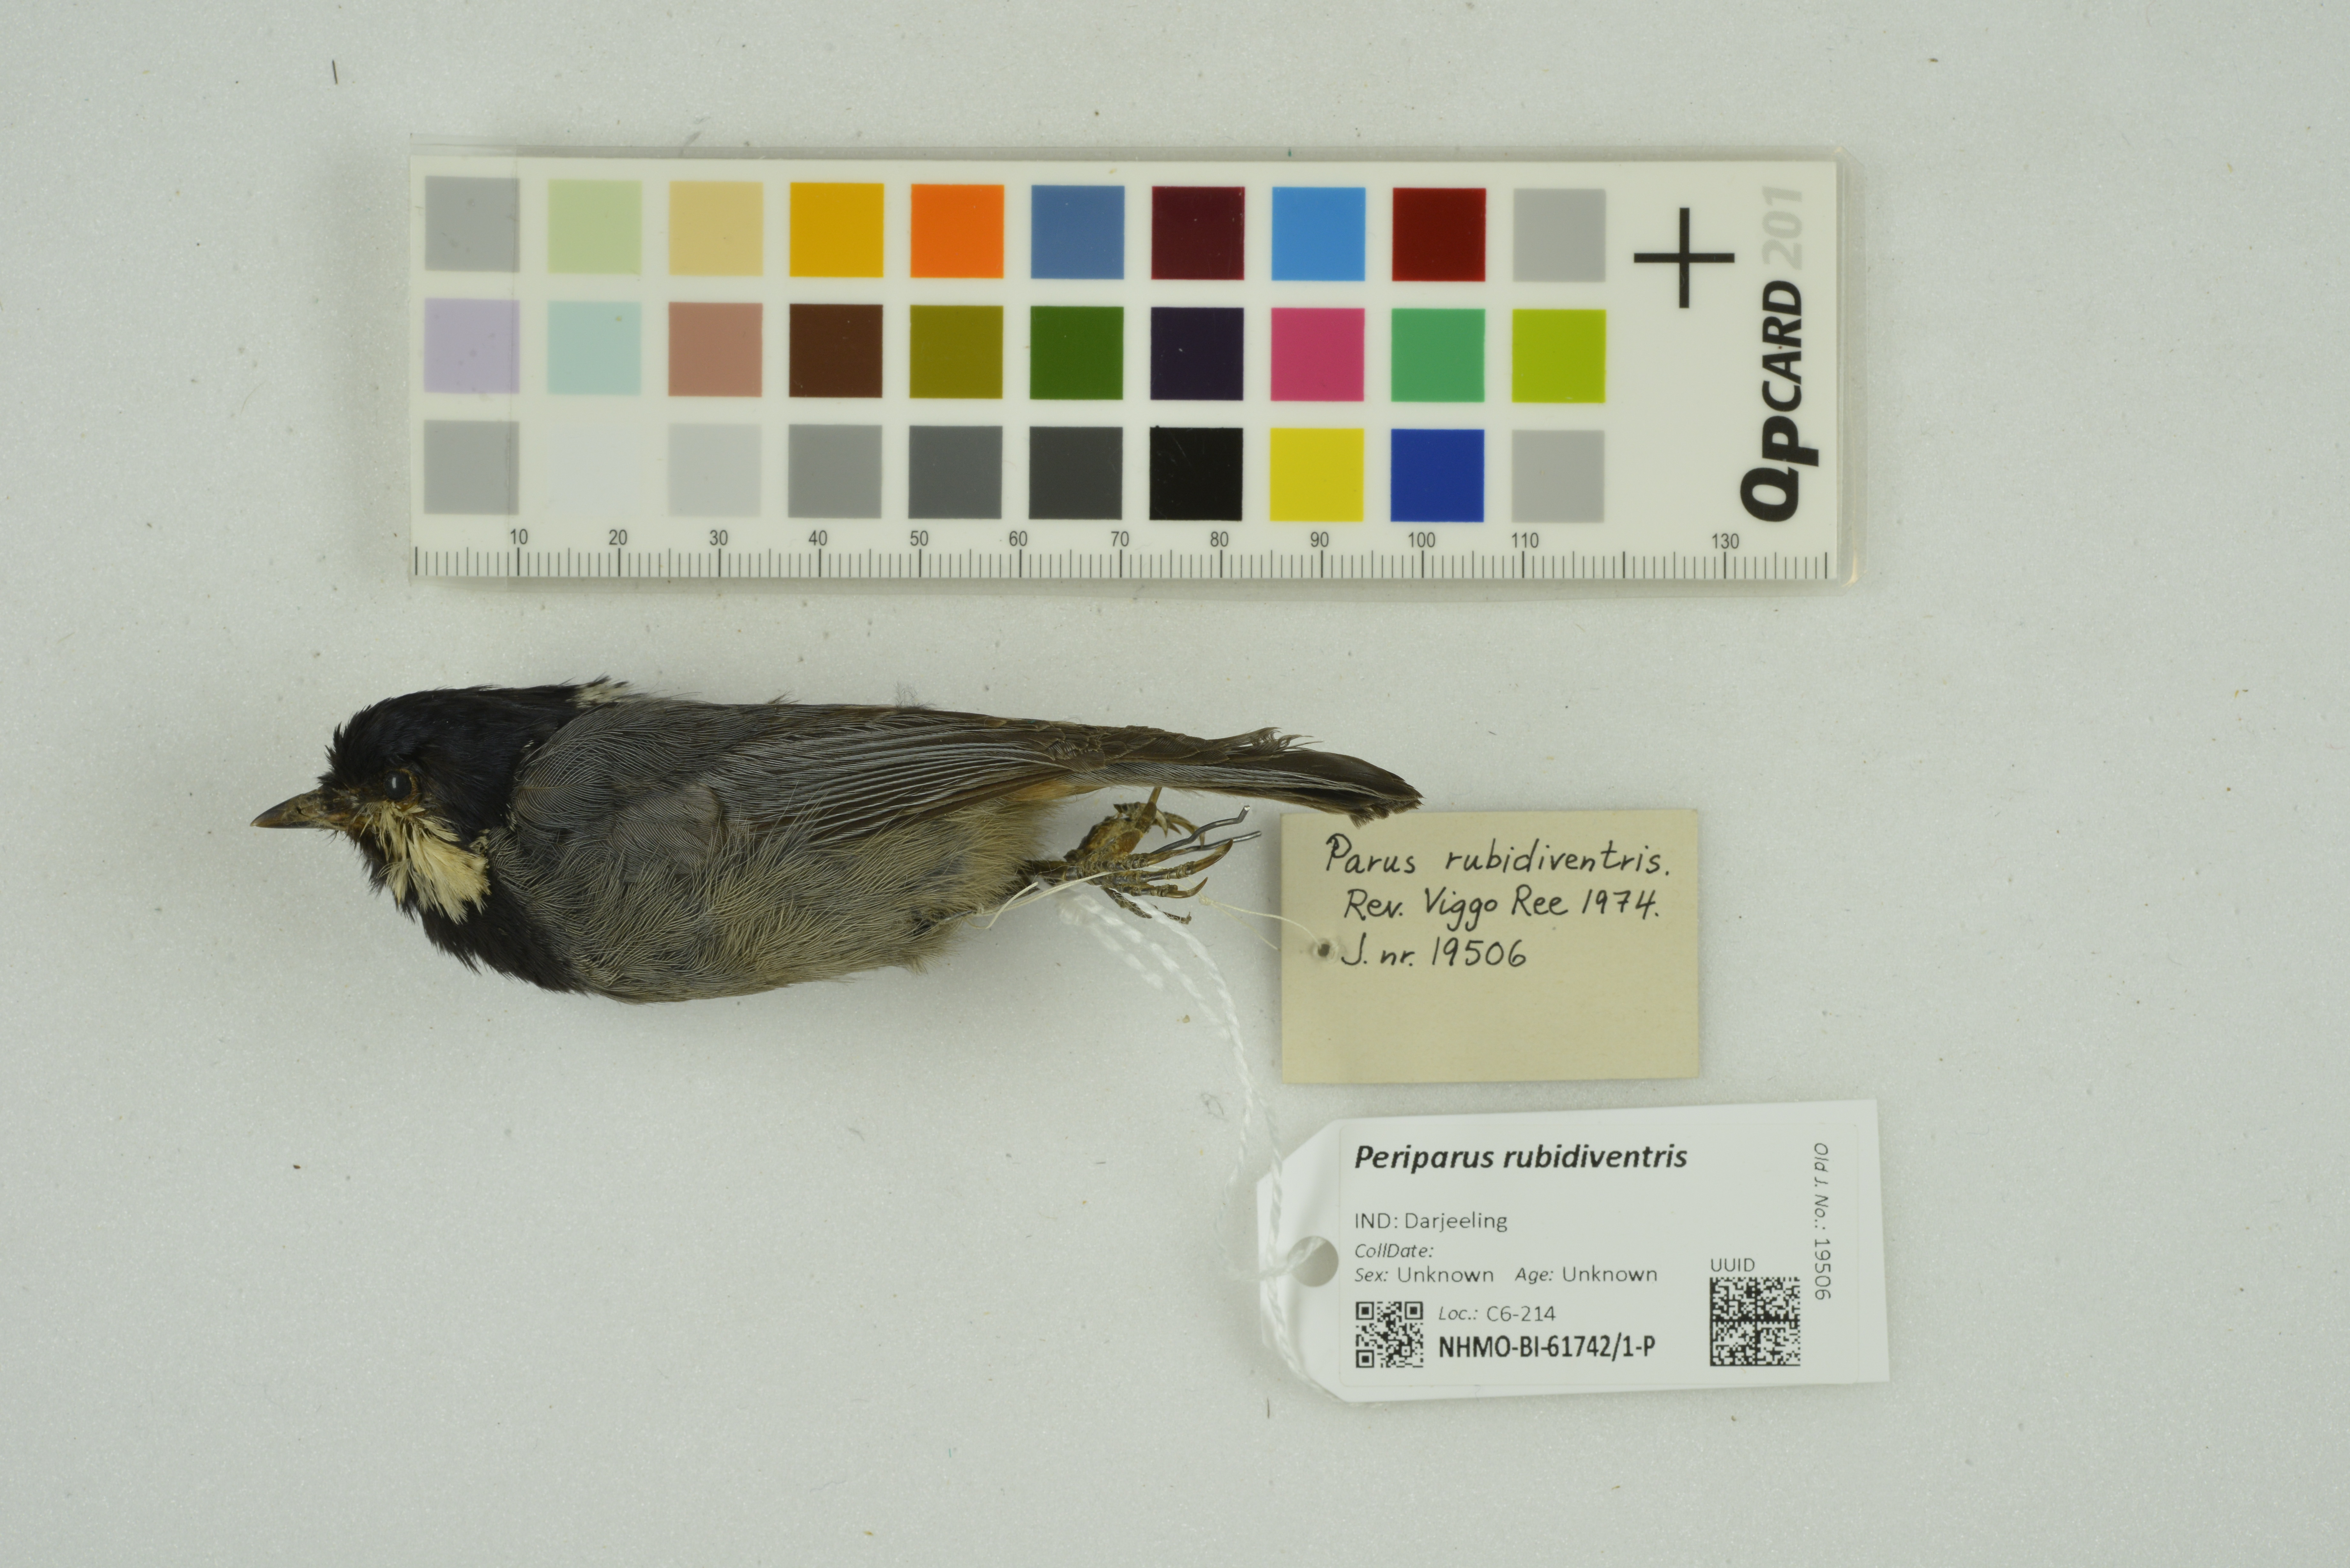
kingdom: Animalia
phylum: Chordata
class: Aves
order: Passeriformes
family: Paridae
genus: Periparus
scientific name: Periparus rubidiventris
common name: Rufous-vented tit
